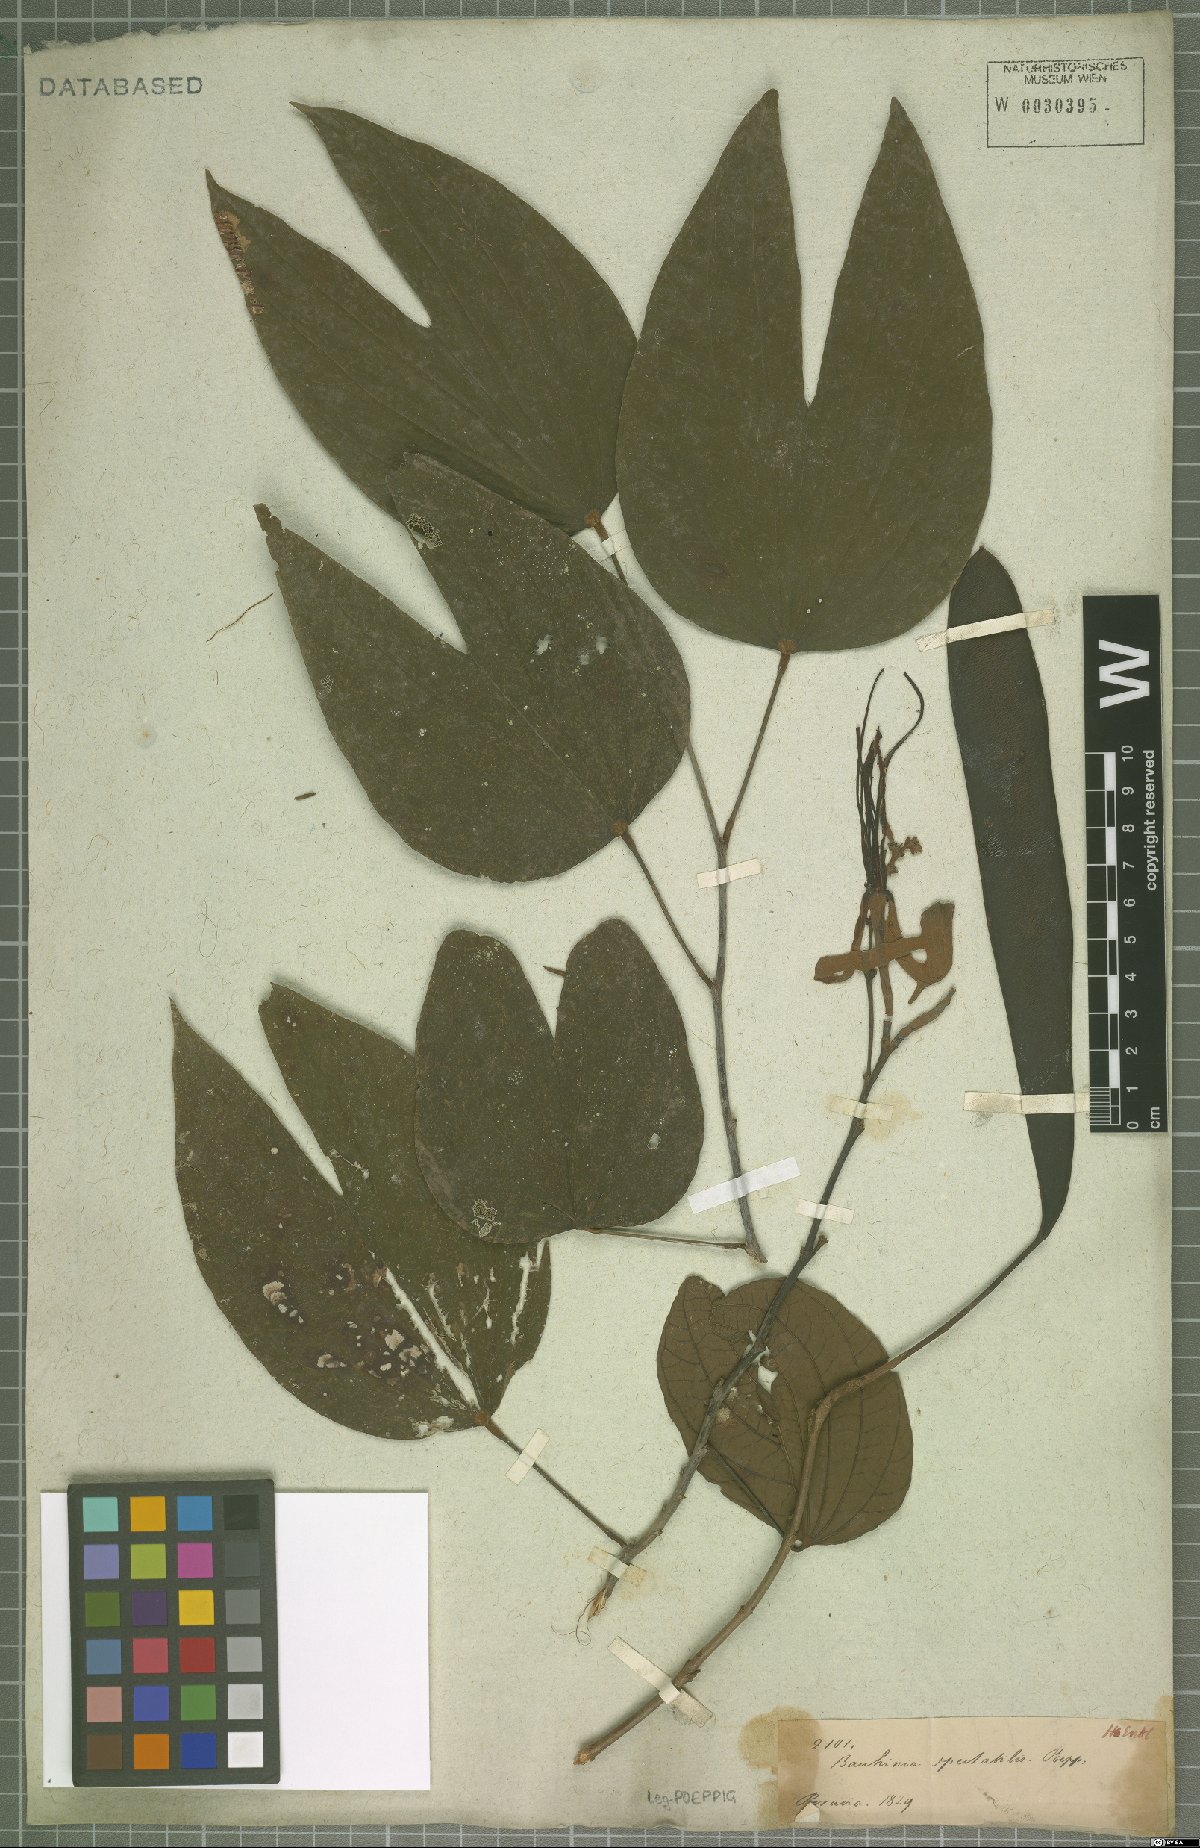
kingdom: Plantae
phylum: Tracheophyta
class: Magnoliopsida
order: Fabales
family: Fabaceae
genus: Bauhinia
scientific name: Bauhinia
